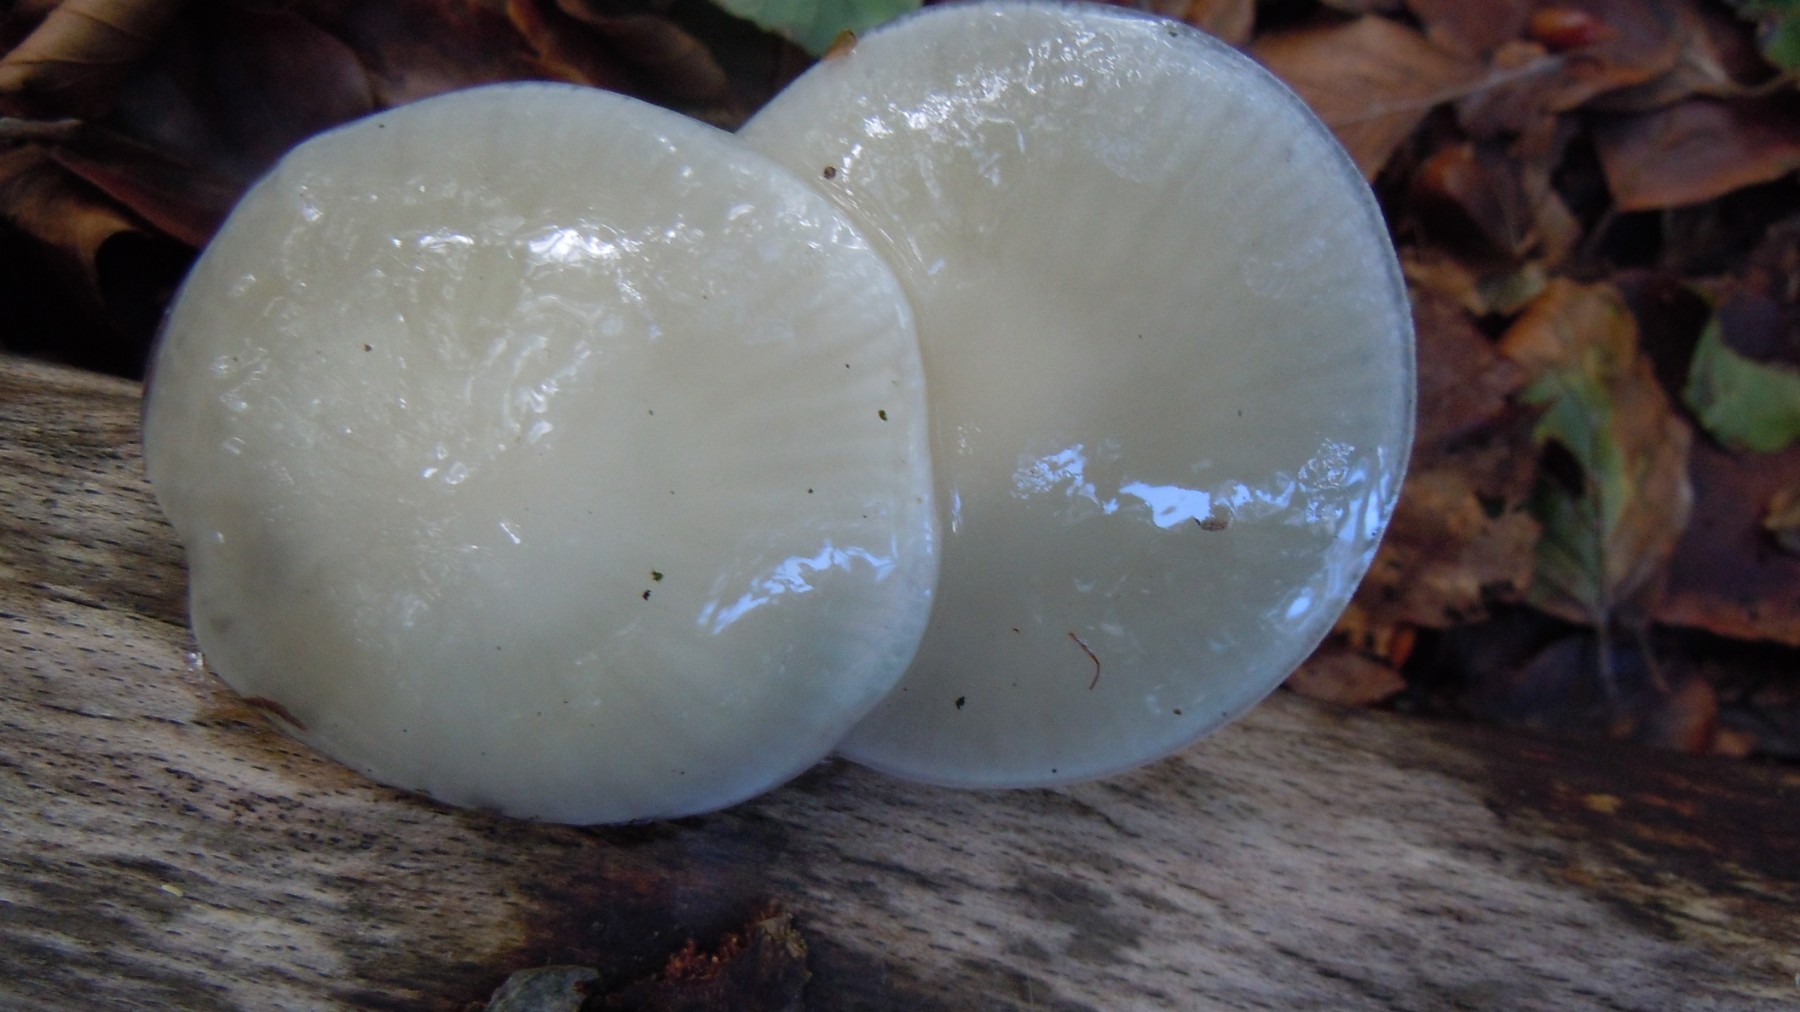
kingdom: Fungi
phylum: Basidiomycota
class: Agaricomycetes
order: Agaricales
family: Physalacriaceae
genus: Mucidula
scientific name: Mucidula mucida
